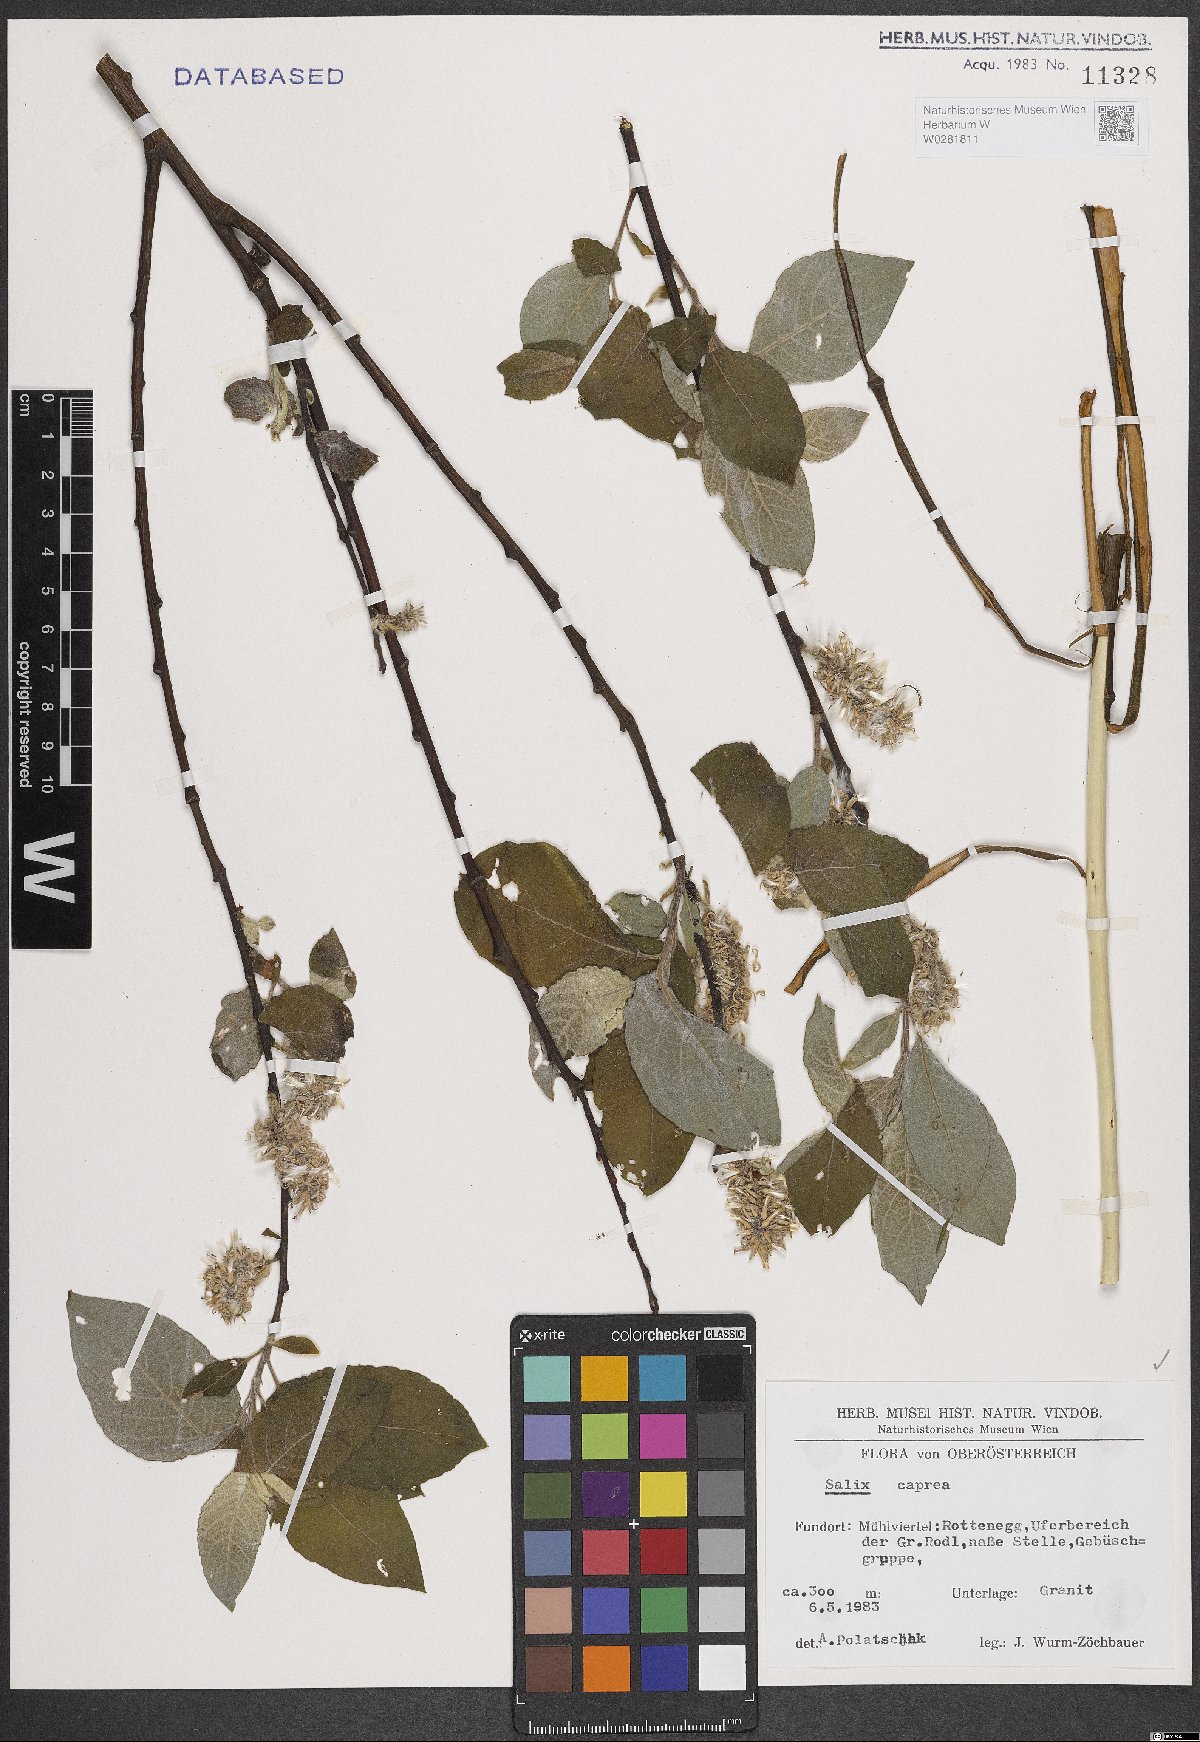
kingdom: Plantae
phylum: Tracheophyta
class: Magnoliopsida
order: Malpighiales
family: Salicaceae
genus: Salix
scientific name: Salix caprea
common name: Goat willow
